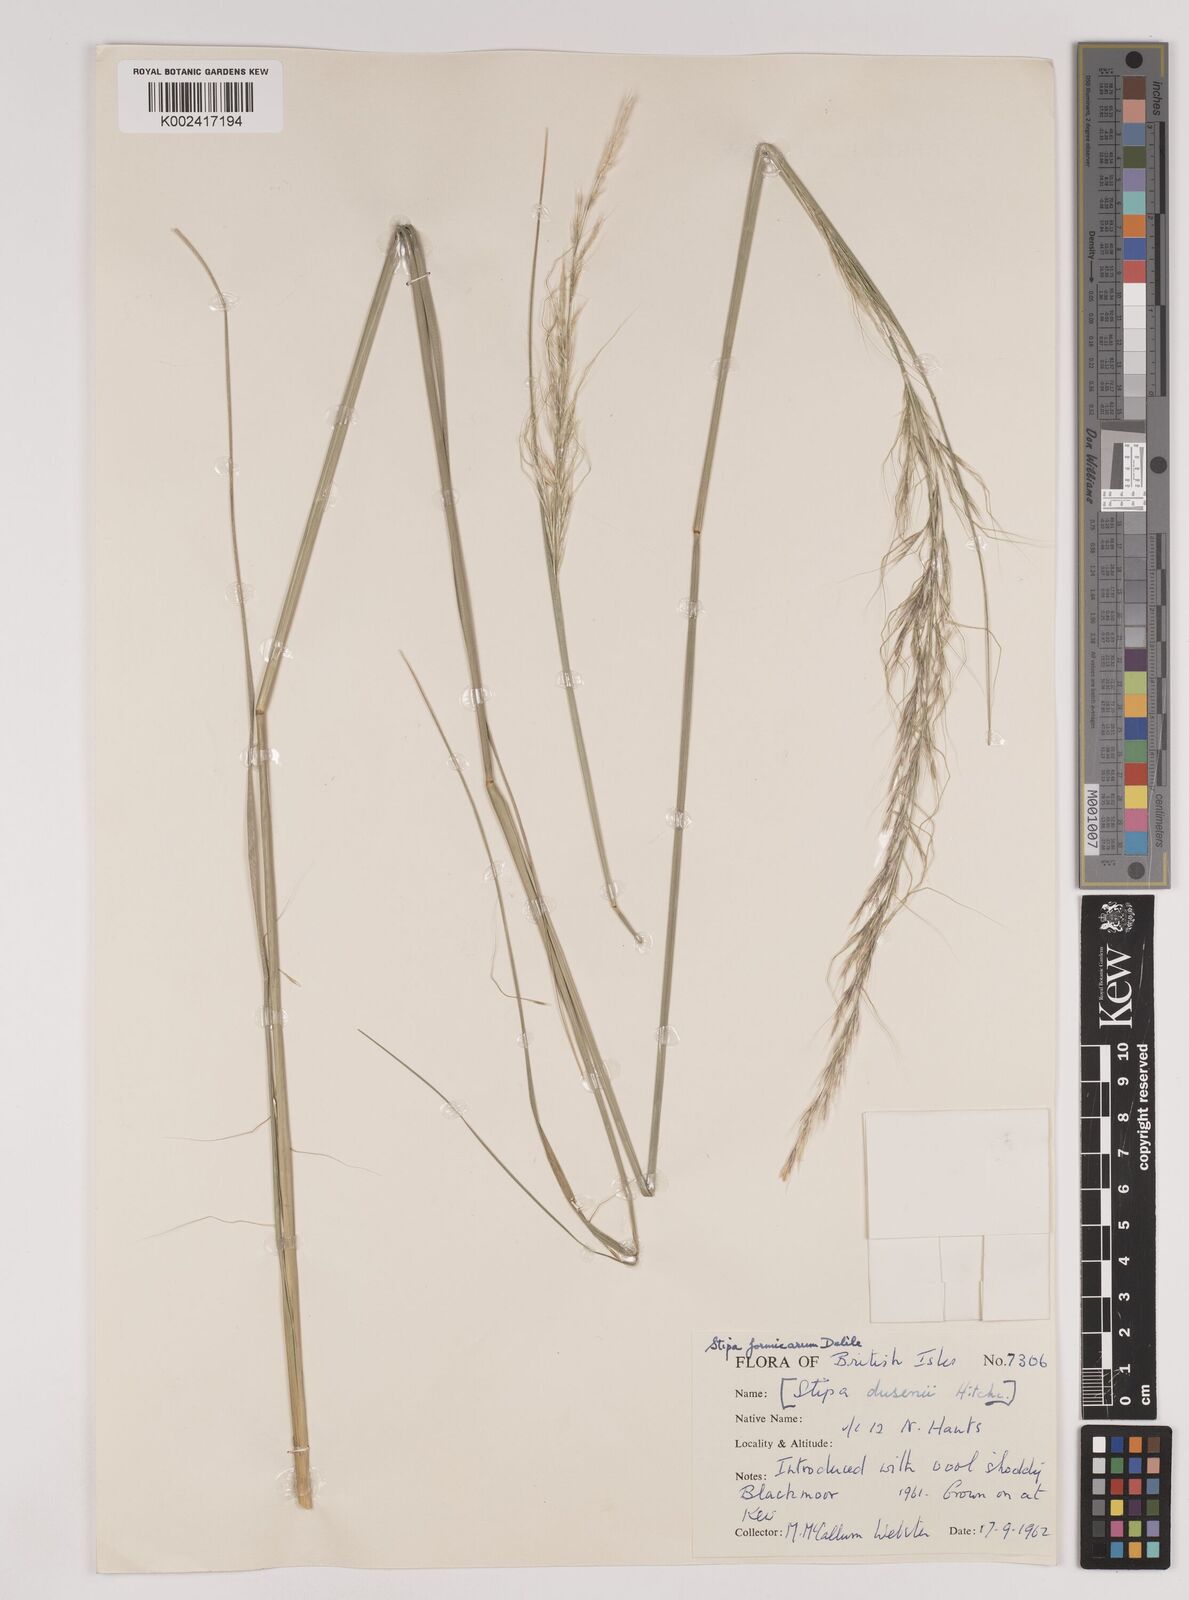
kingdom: Plantae
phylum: Tracheophyta
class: Liliopsida
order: Poales
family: Poaceae
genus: Nassella
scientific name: Nassella formicarum
